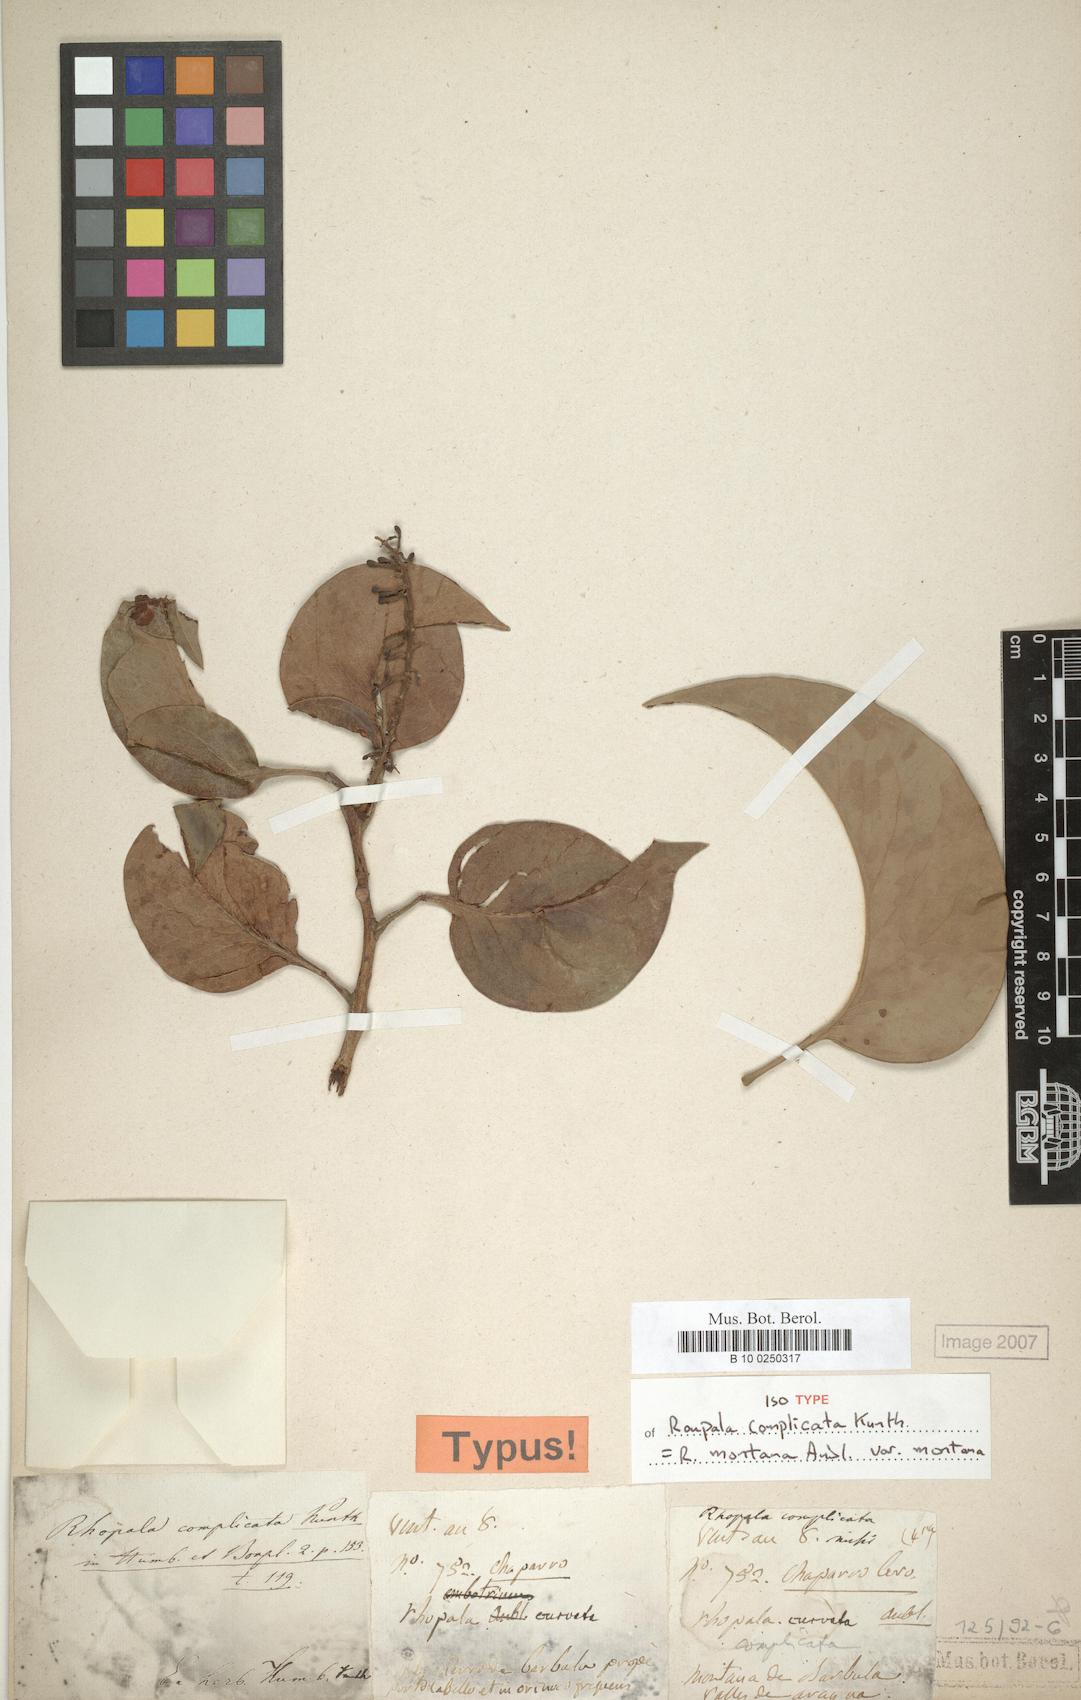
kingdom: Plantae
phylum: Tracheophyta
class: Magnoliopsida
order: Proteales
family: Proteaceae
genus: Roupala
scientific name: Roupala montana
